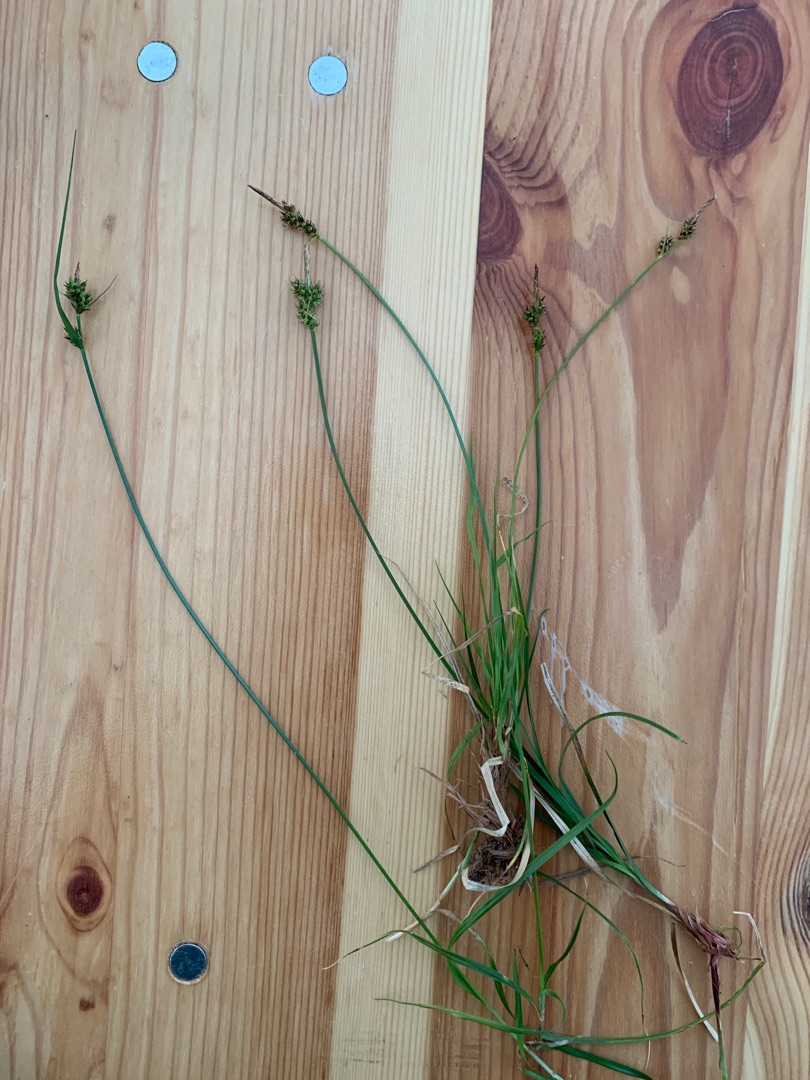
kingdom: Plantae
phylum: Tracheophyta
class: Liliopsida
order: Poales
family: Cyperaceae
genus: Carex
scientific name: Carex pilulifera
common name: Pille-star
